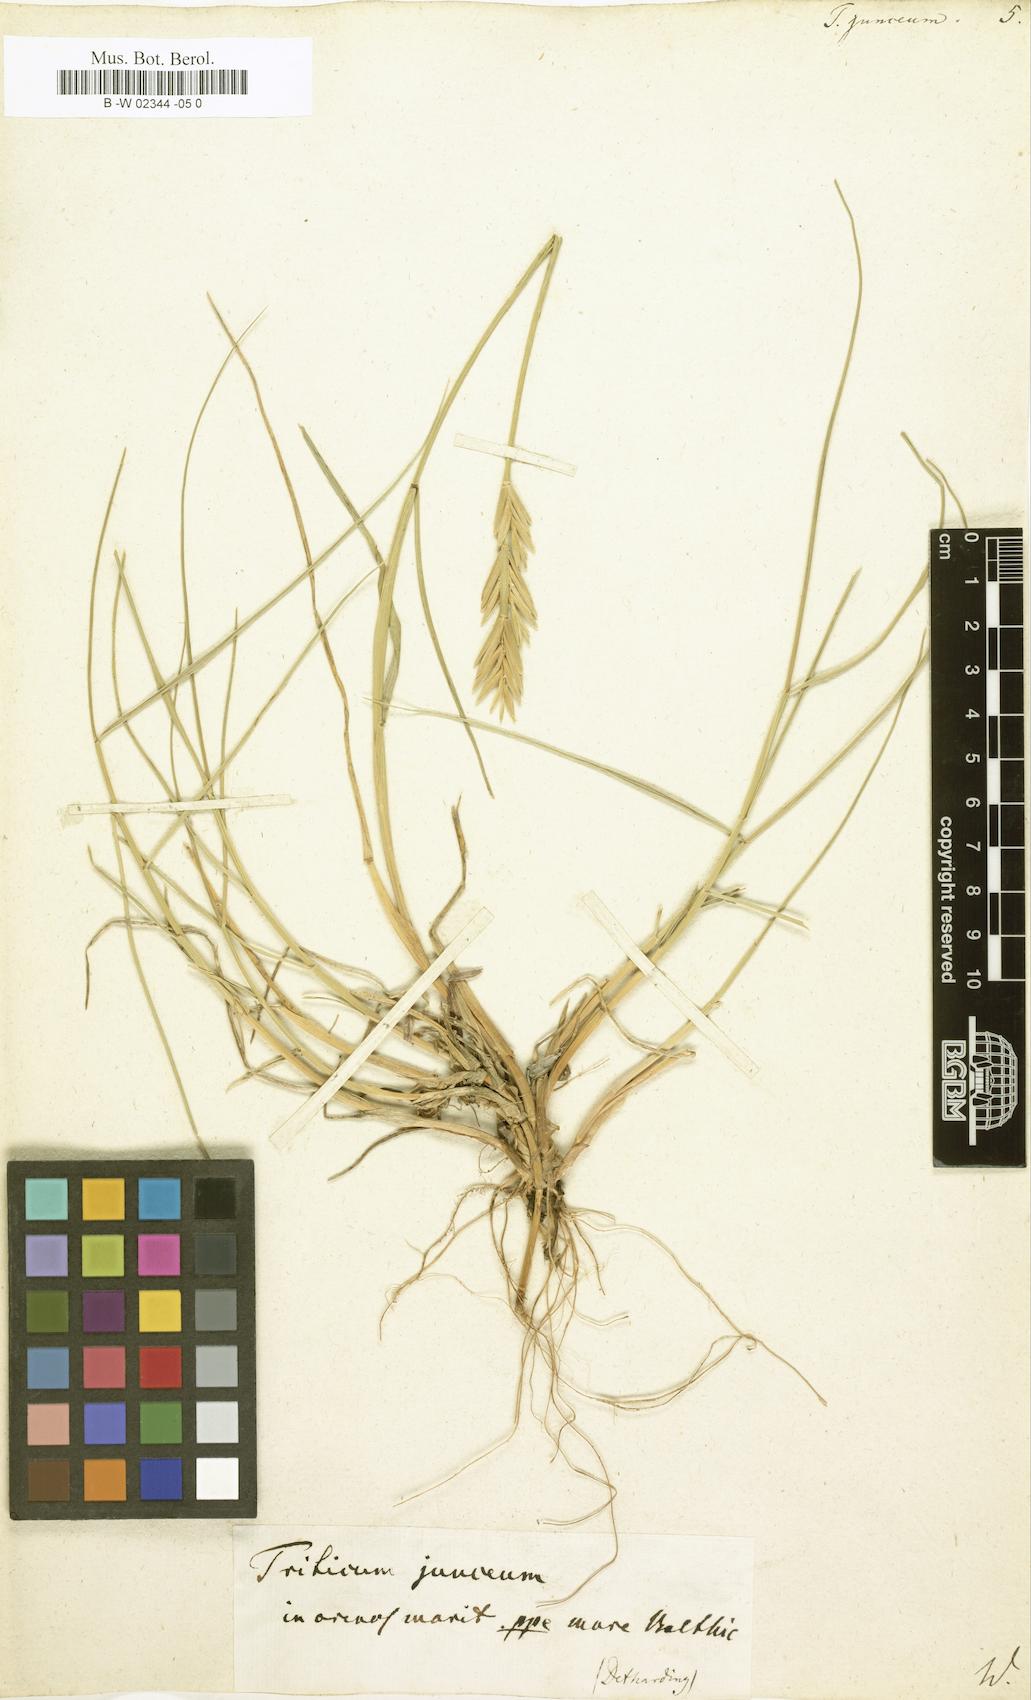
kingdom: Plantae
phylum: Tracheophyta
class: Liliopsida
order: Poales
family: Poaceae
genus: Thinopyrum
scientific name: Thinopyrum
